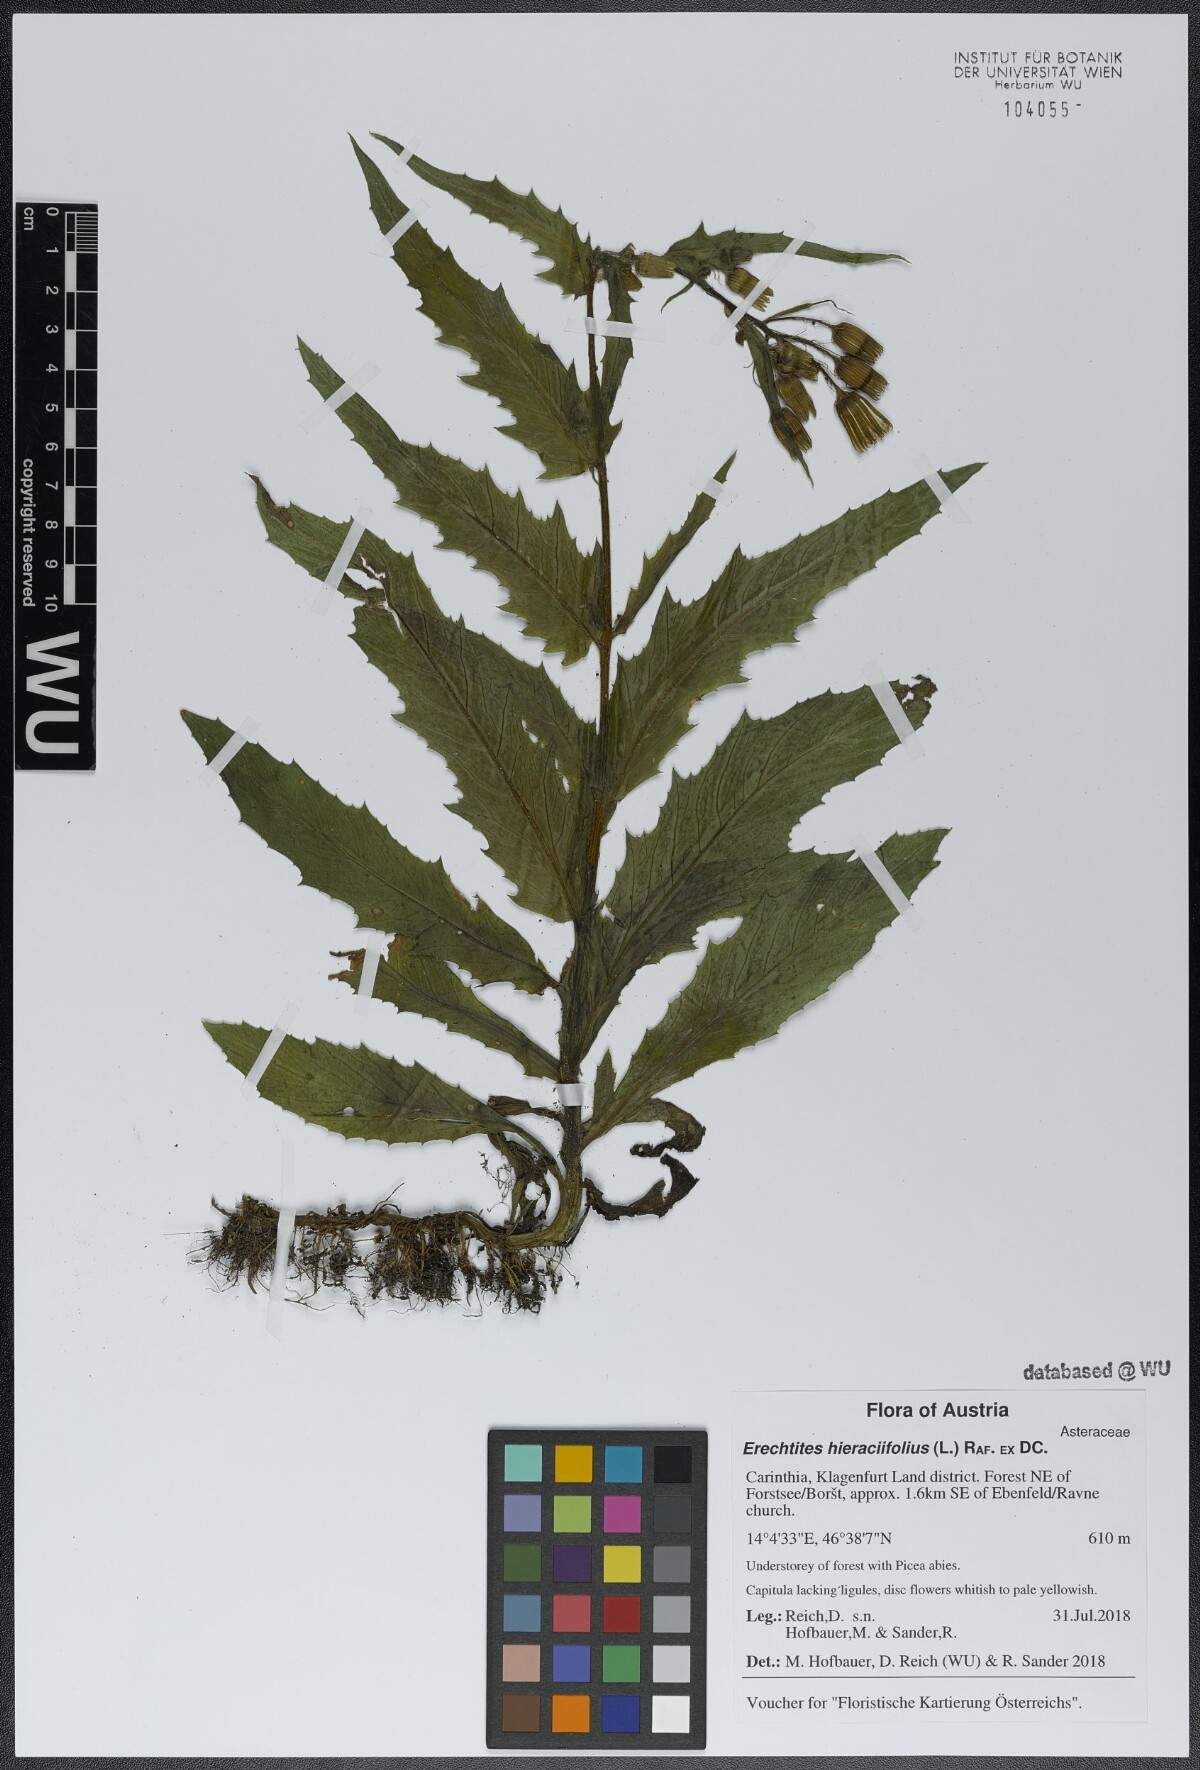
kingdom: Plantae
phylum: Tracheophyta
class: Magnoliopsida
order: Asterales
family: Asteraceae
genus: Erechtites
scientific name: Erechtites hieraciifolius
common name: American burnweed
